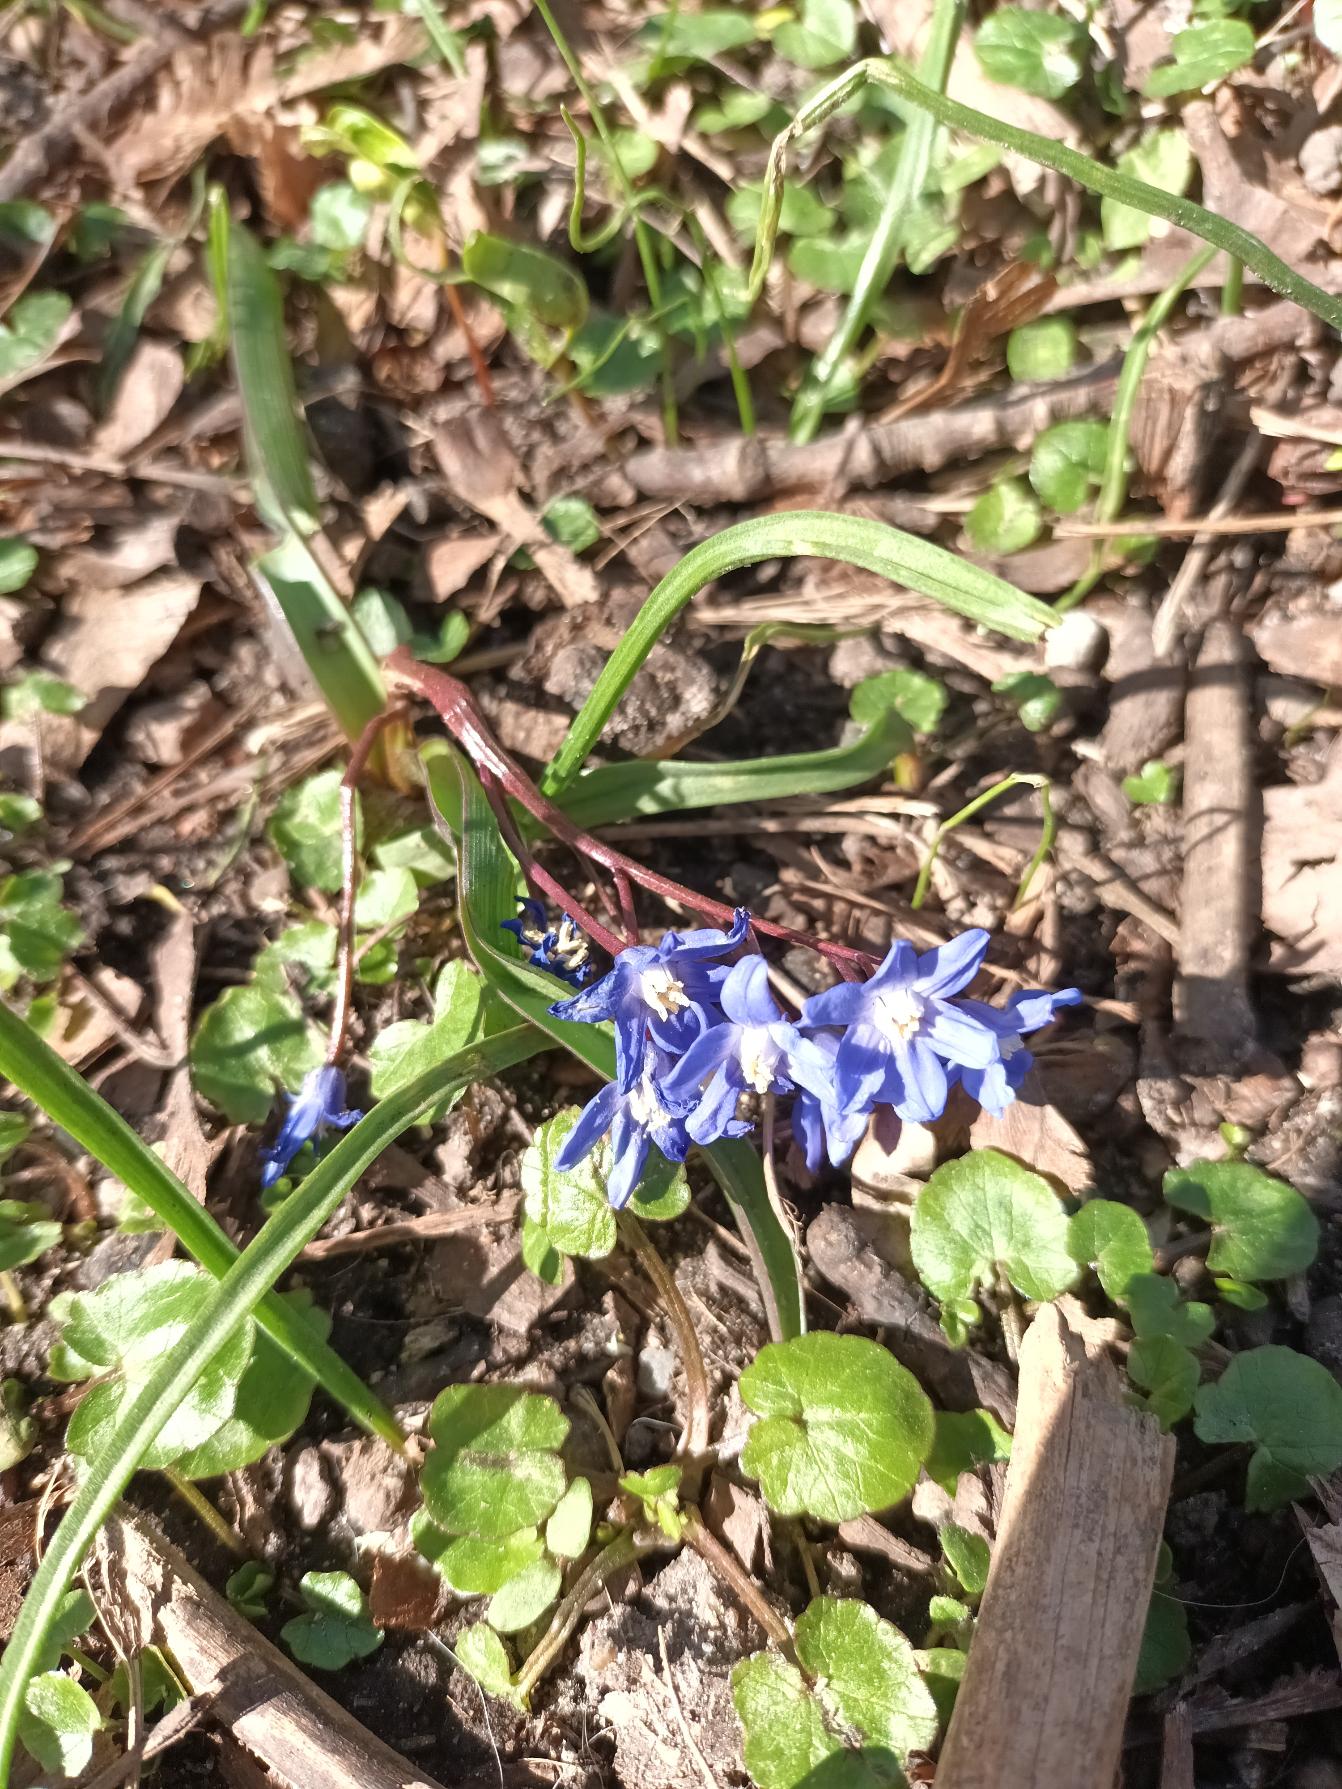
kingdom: Plantae
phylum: Tracheophyta
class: Liliopsida
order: Asparagales
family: Asparagaceae
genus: Scilla
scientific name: Scilla sardensis
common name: Liden snepryd
